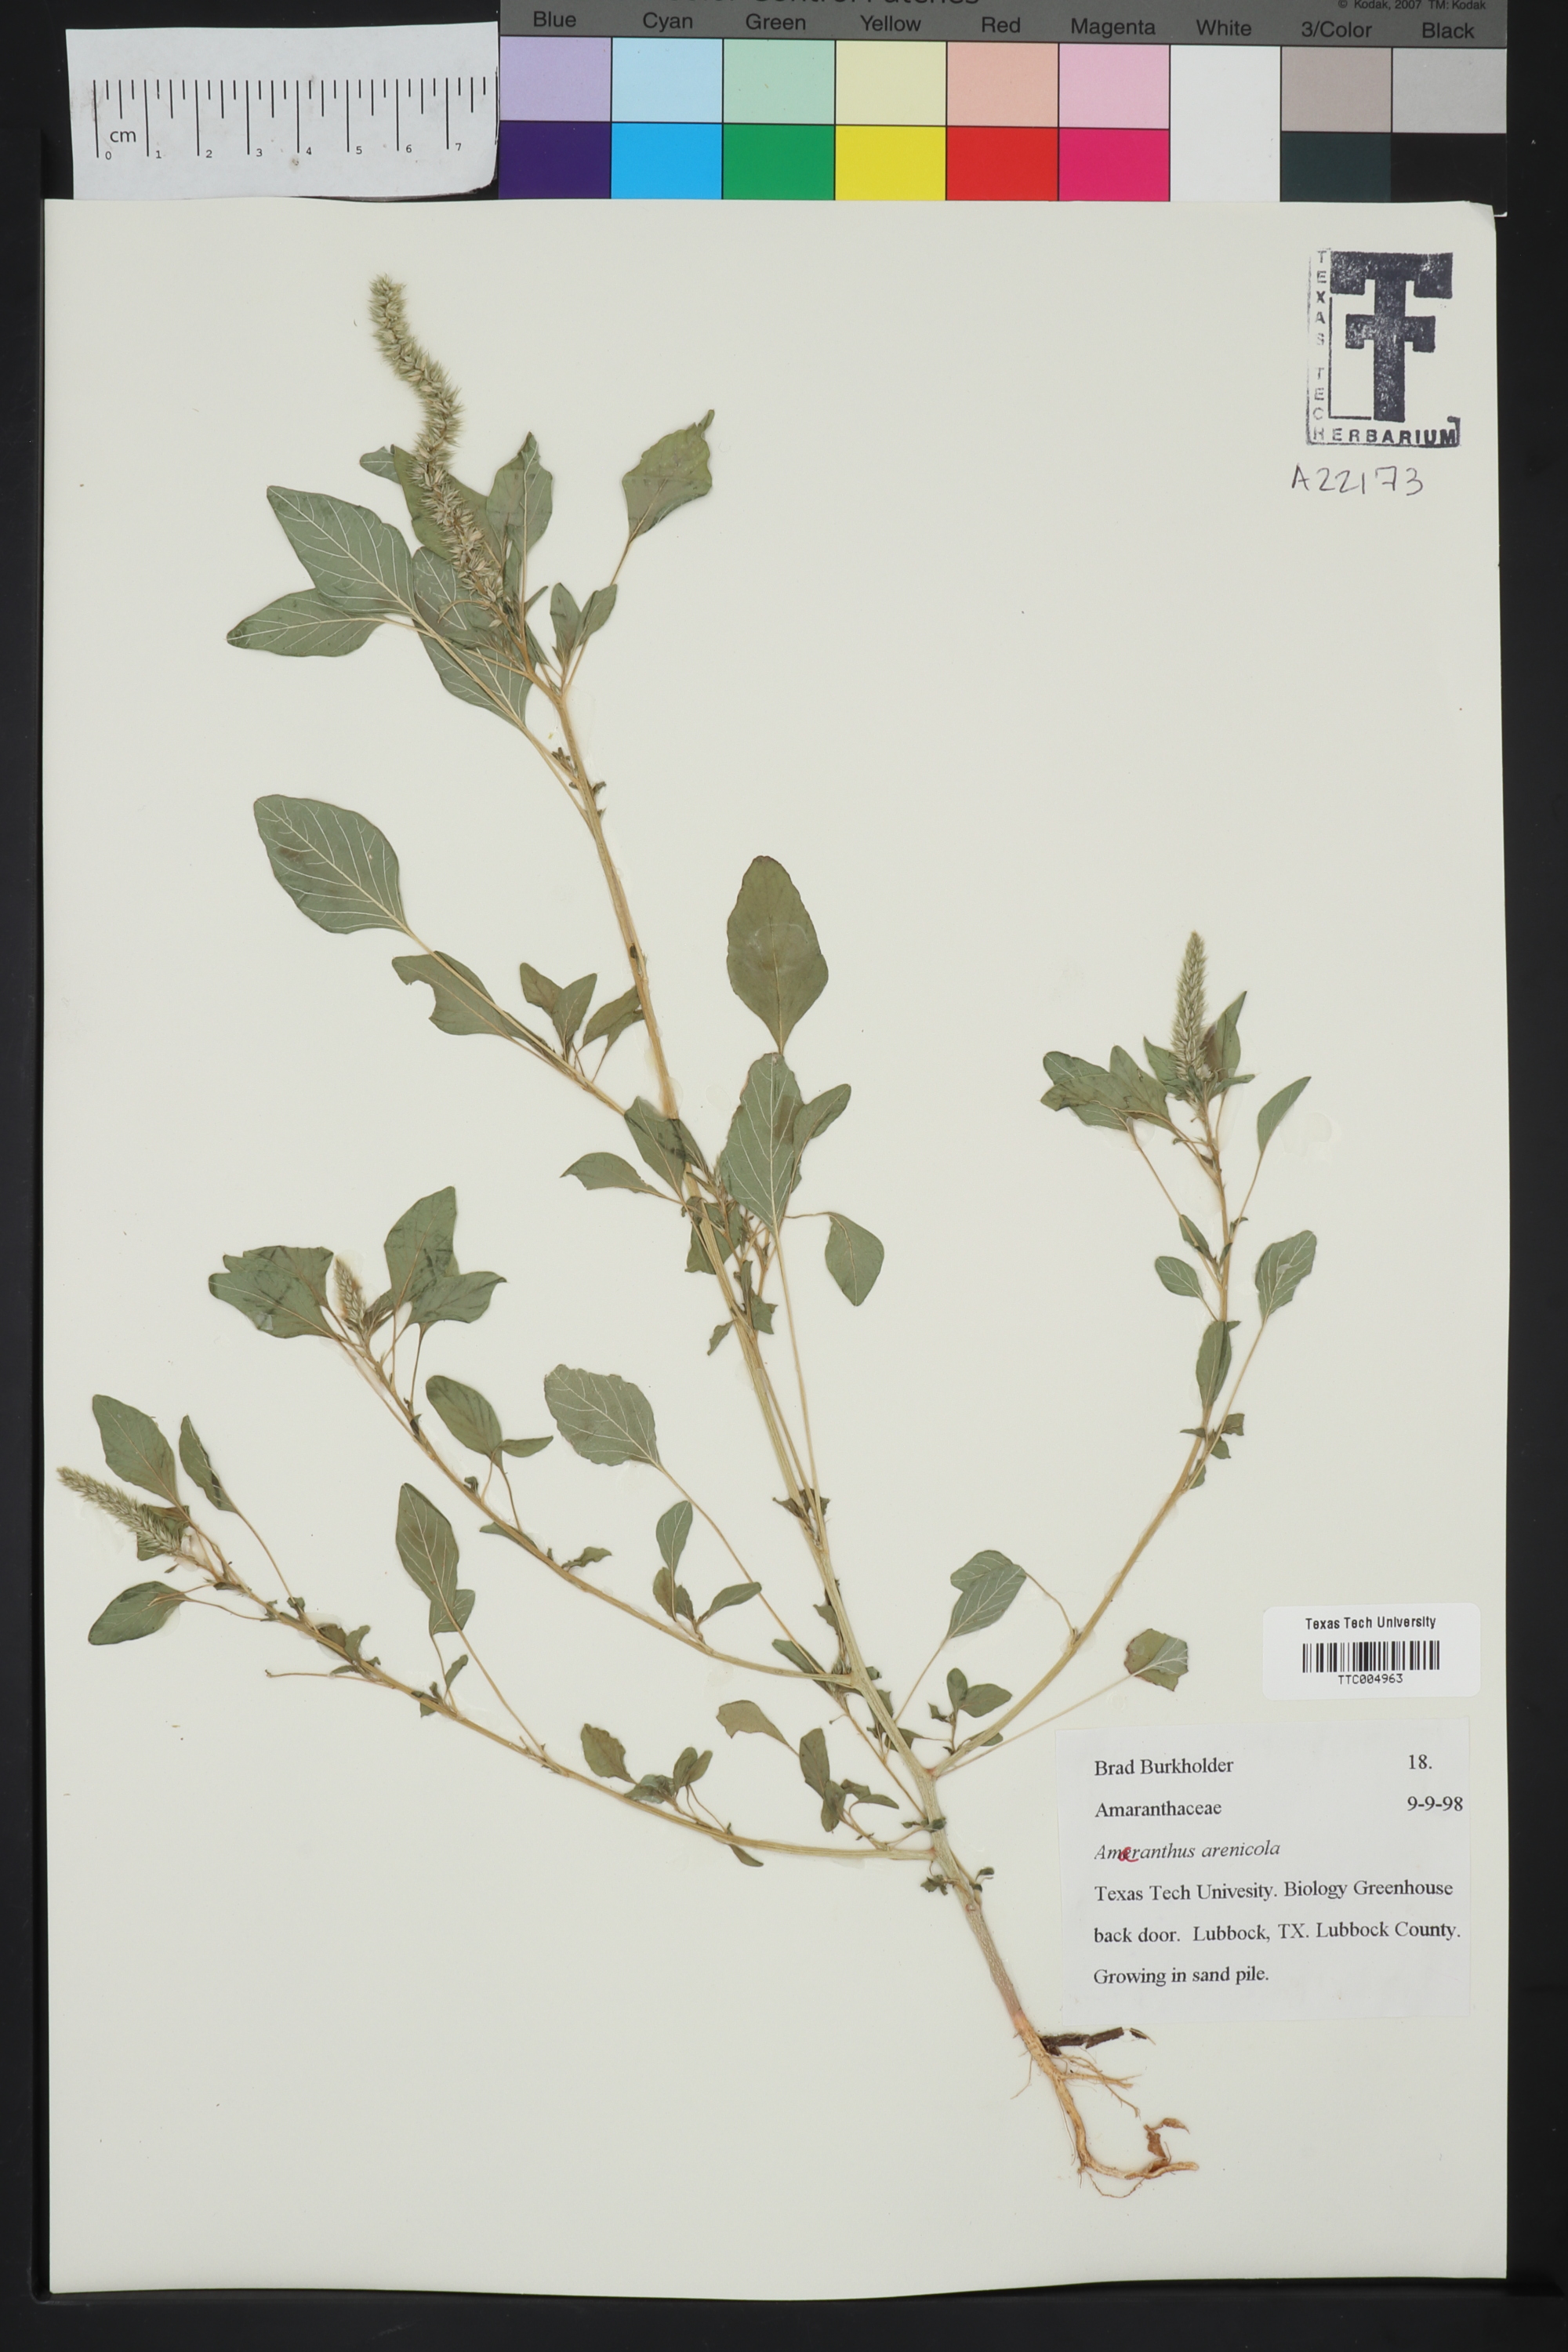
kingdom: Plantae
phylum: Tracheophyta
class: Magnoliopsida
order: Caryophyllales
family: Amaranthaceae
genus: Amaranthus
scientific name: Amaranthus arenicola
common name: Sandhills amaranth
